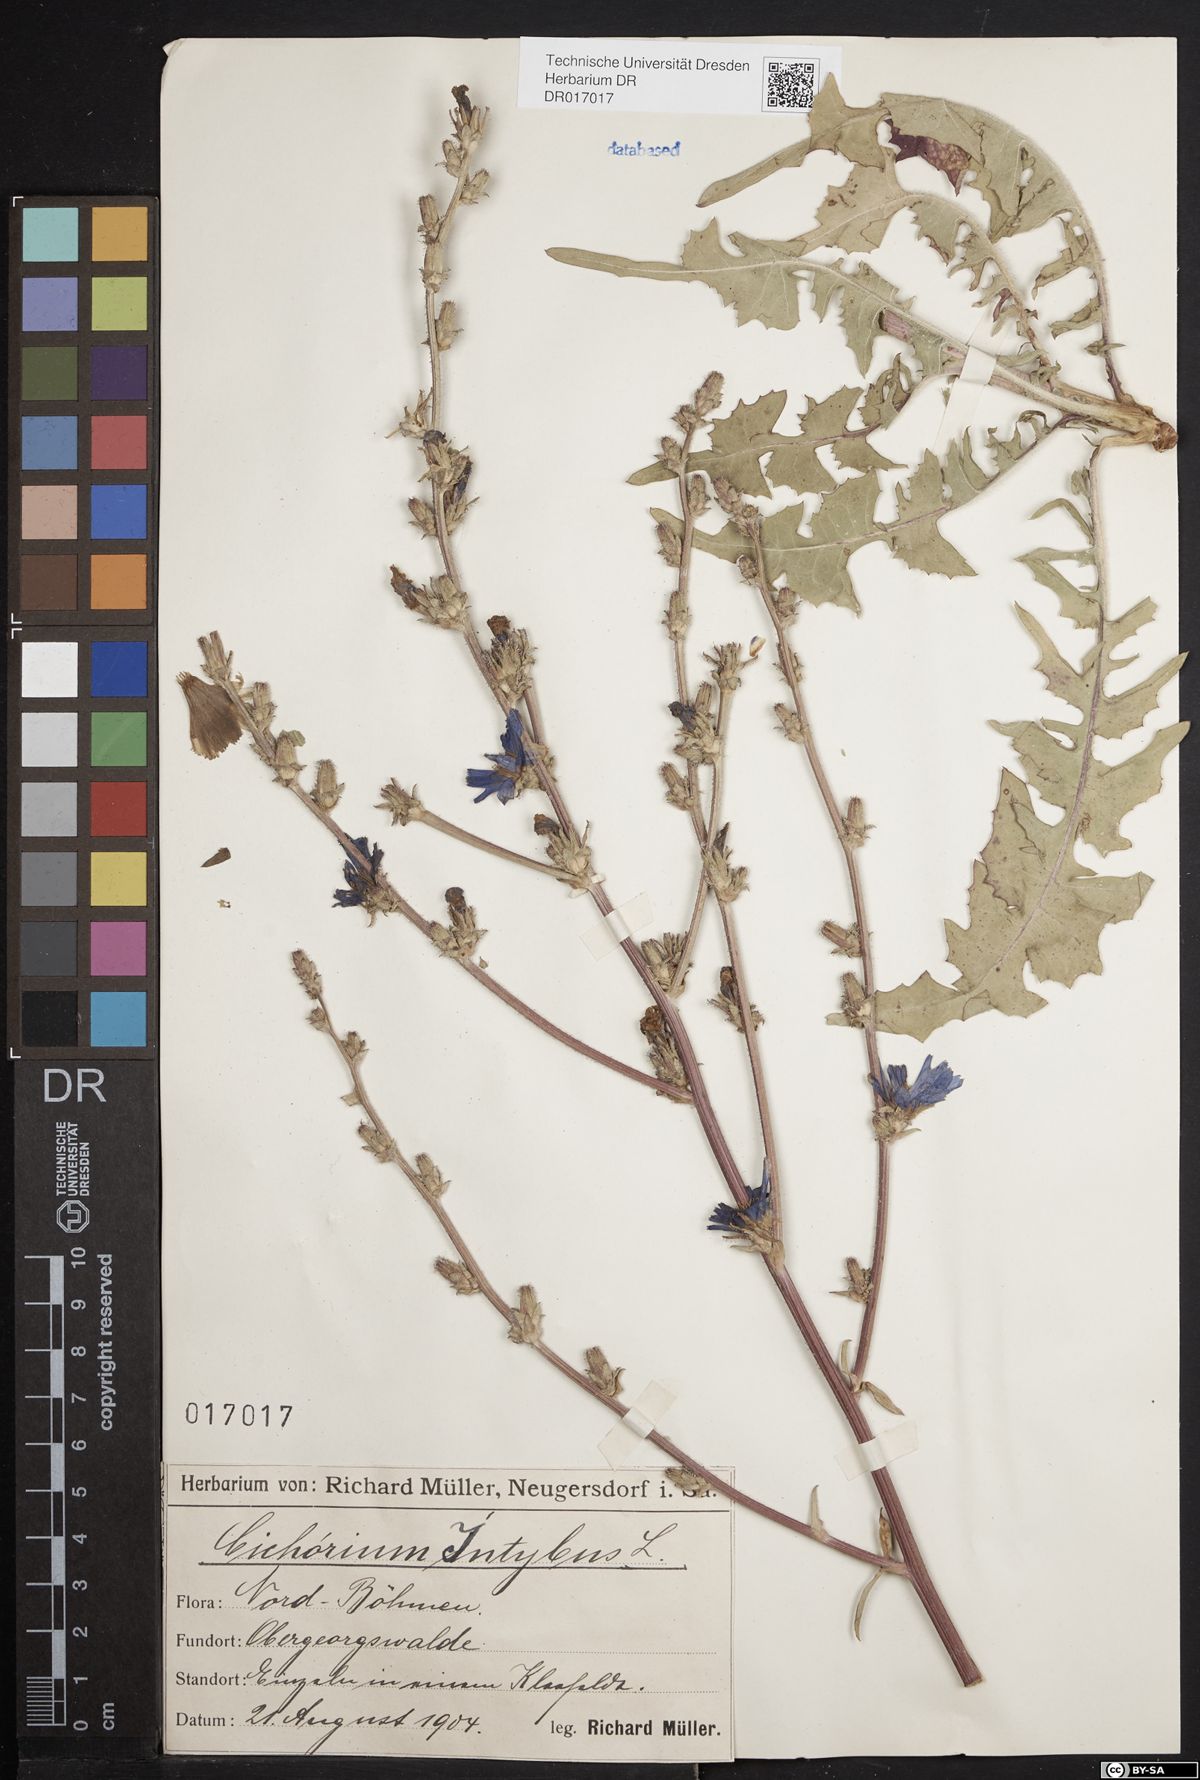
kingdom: Plantae
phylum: Tracheophyta
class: Magnoliopsida
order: Asterales
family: Asteraceae
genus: Cichorium
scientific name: Cichorium intybus
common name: Chicory
